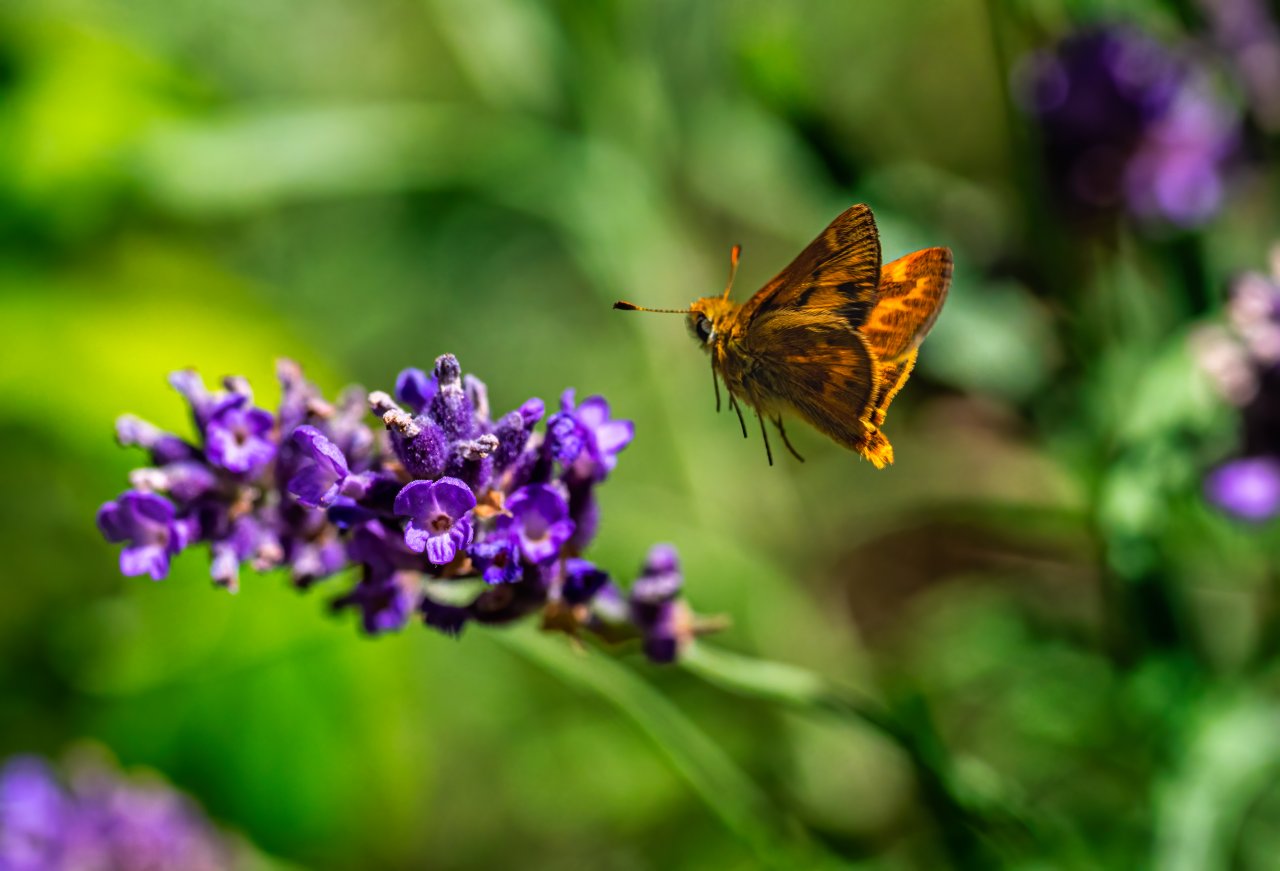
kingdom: Animalia
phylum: Arthropoda
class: Insecta
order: Lepidoptera
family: Hesperiidae
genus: Ochlodes
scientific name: Ochlodes sylvanoides
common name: Woodland Skipper
